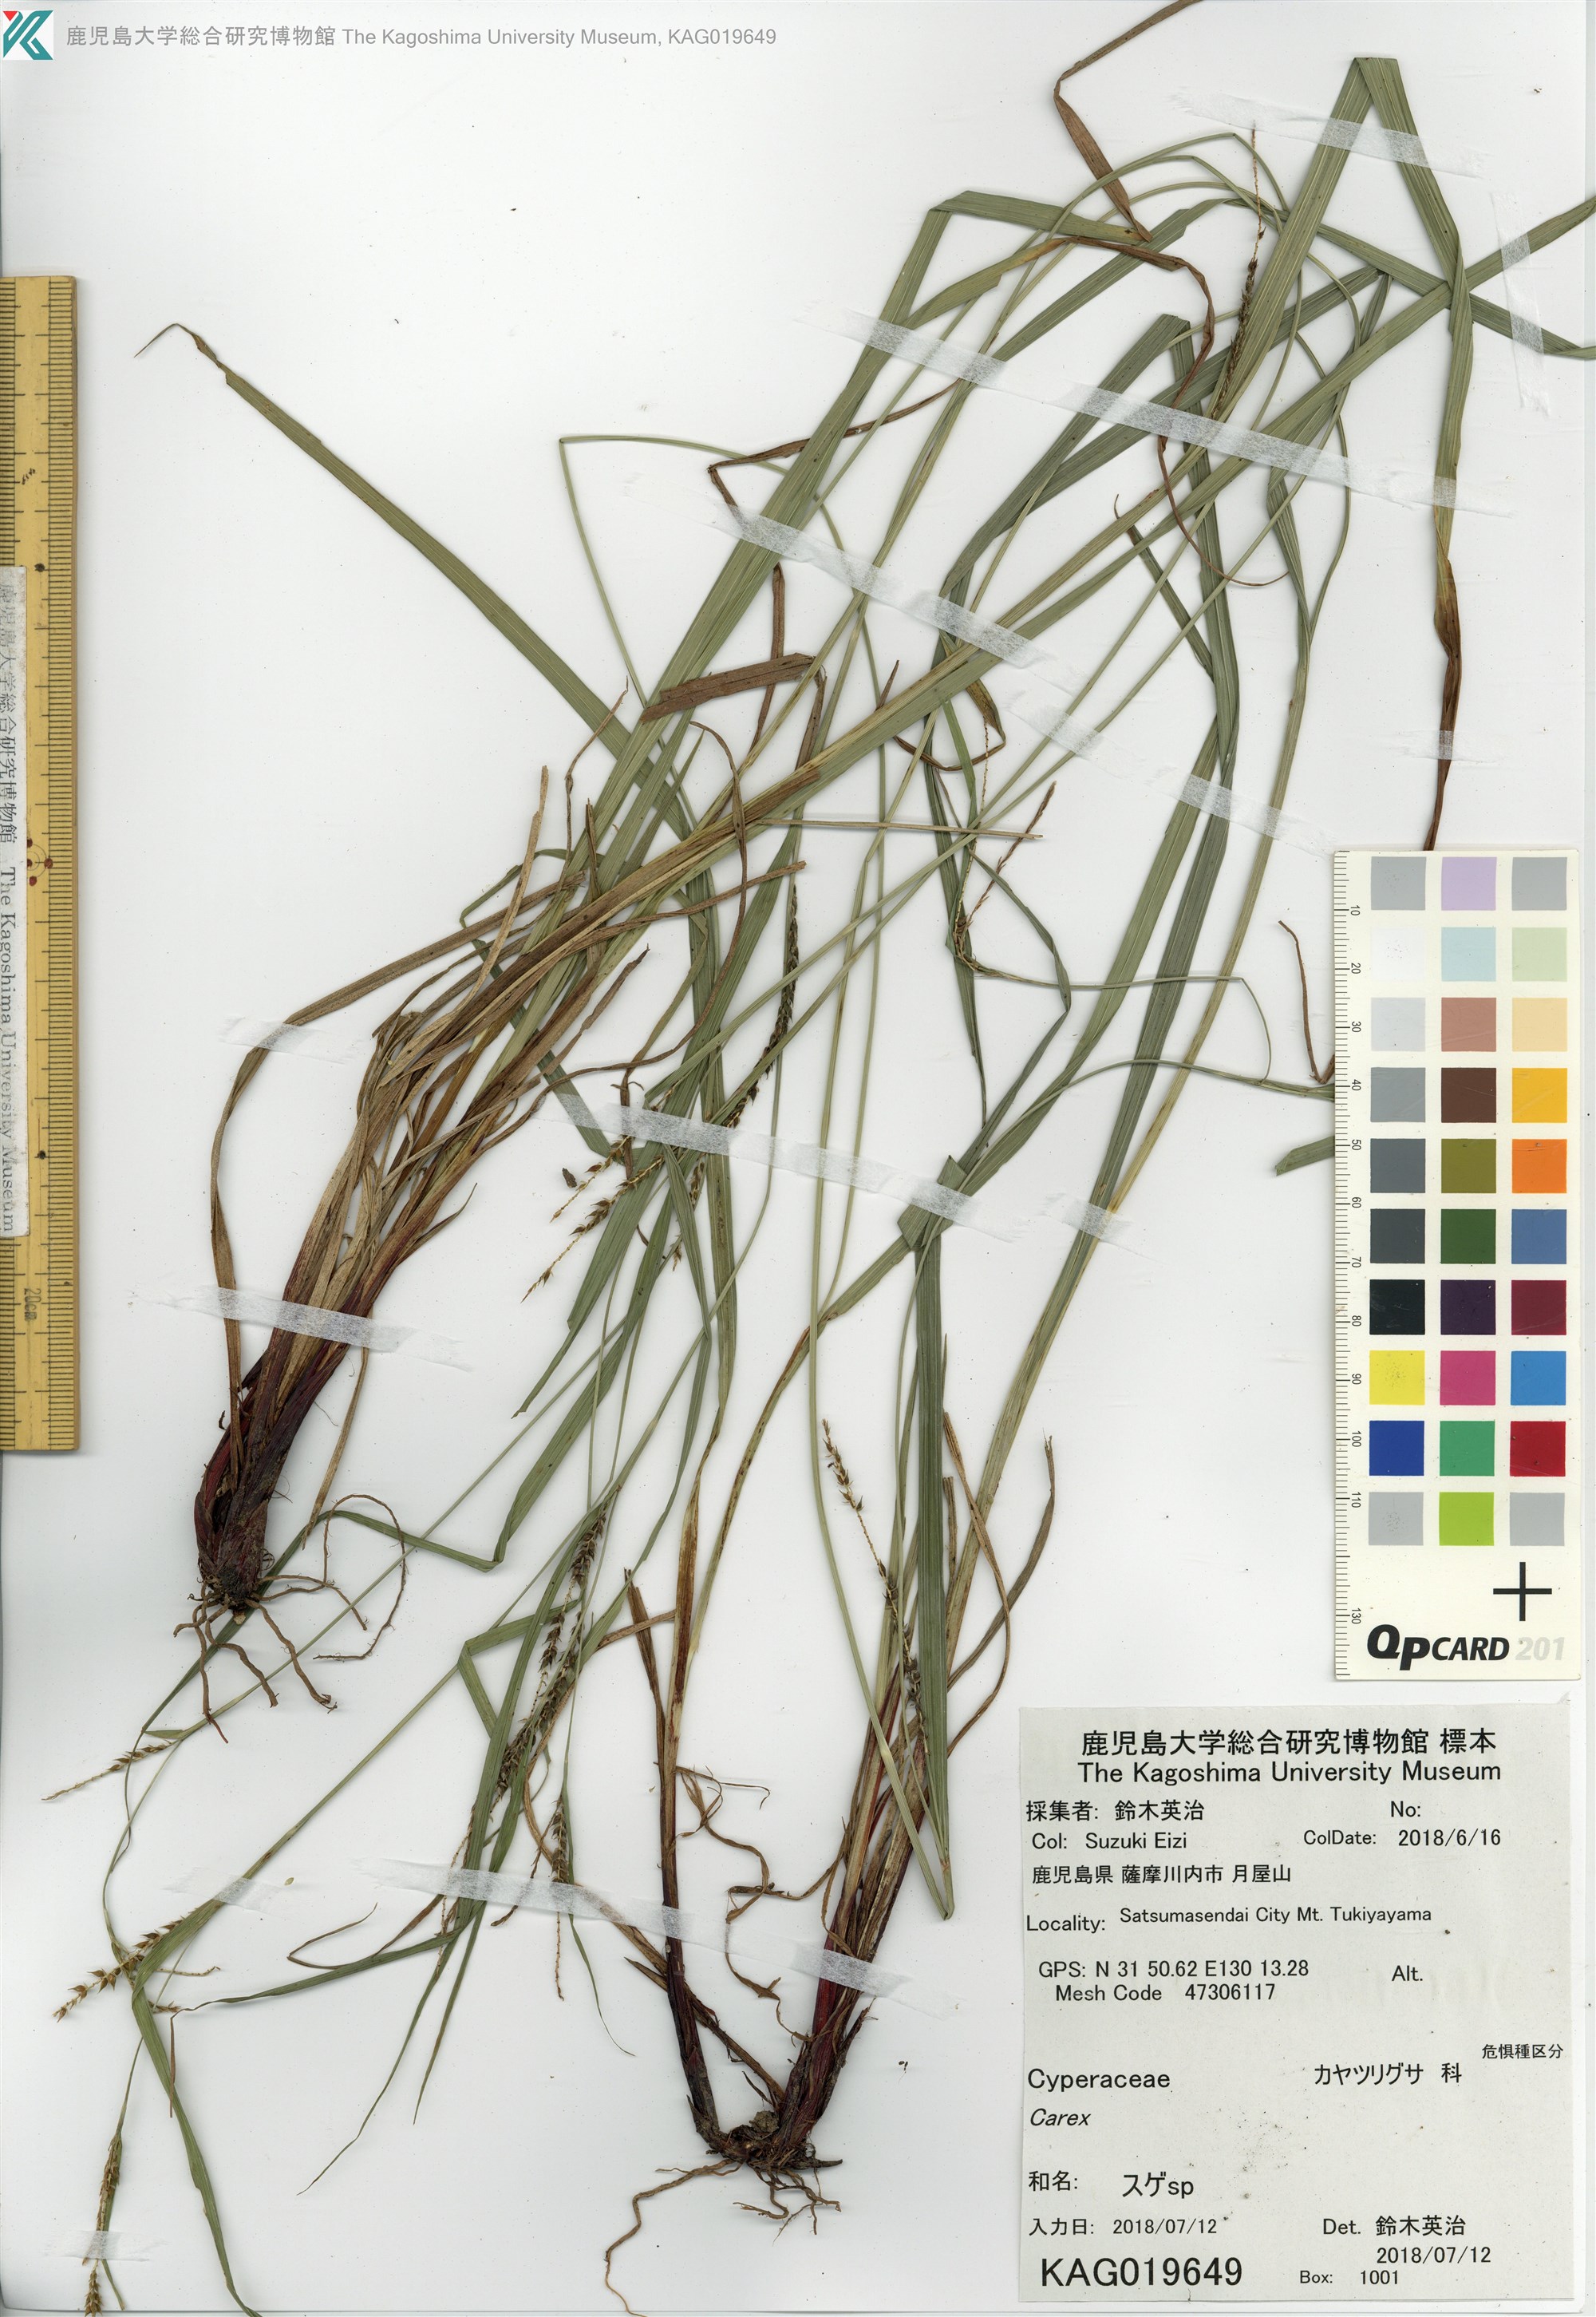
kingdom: Plantae
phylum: Tracheophyta
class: Liliopsida
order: Poales
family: Cyperaceae
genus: Carex
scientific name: Carex
